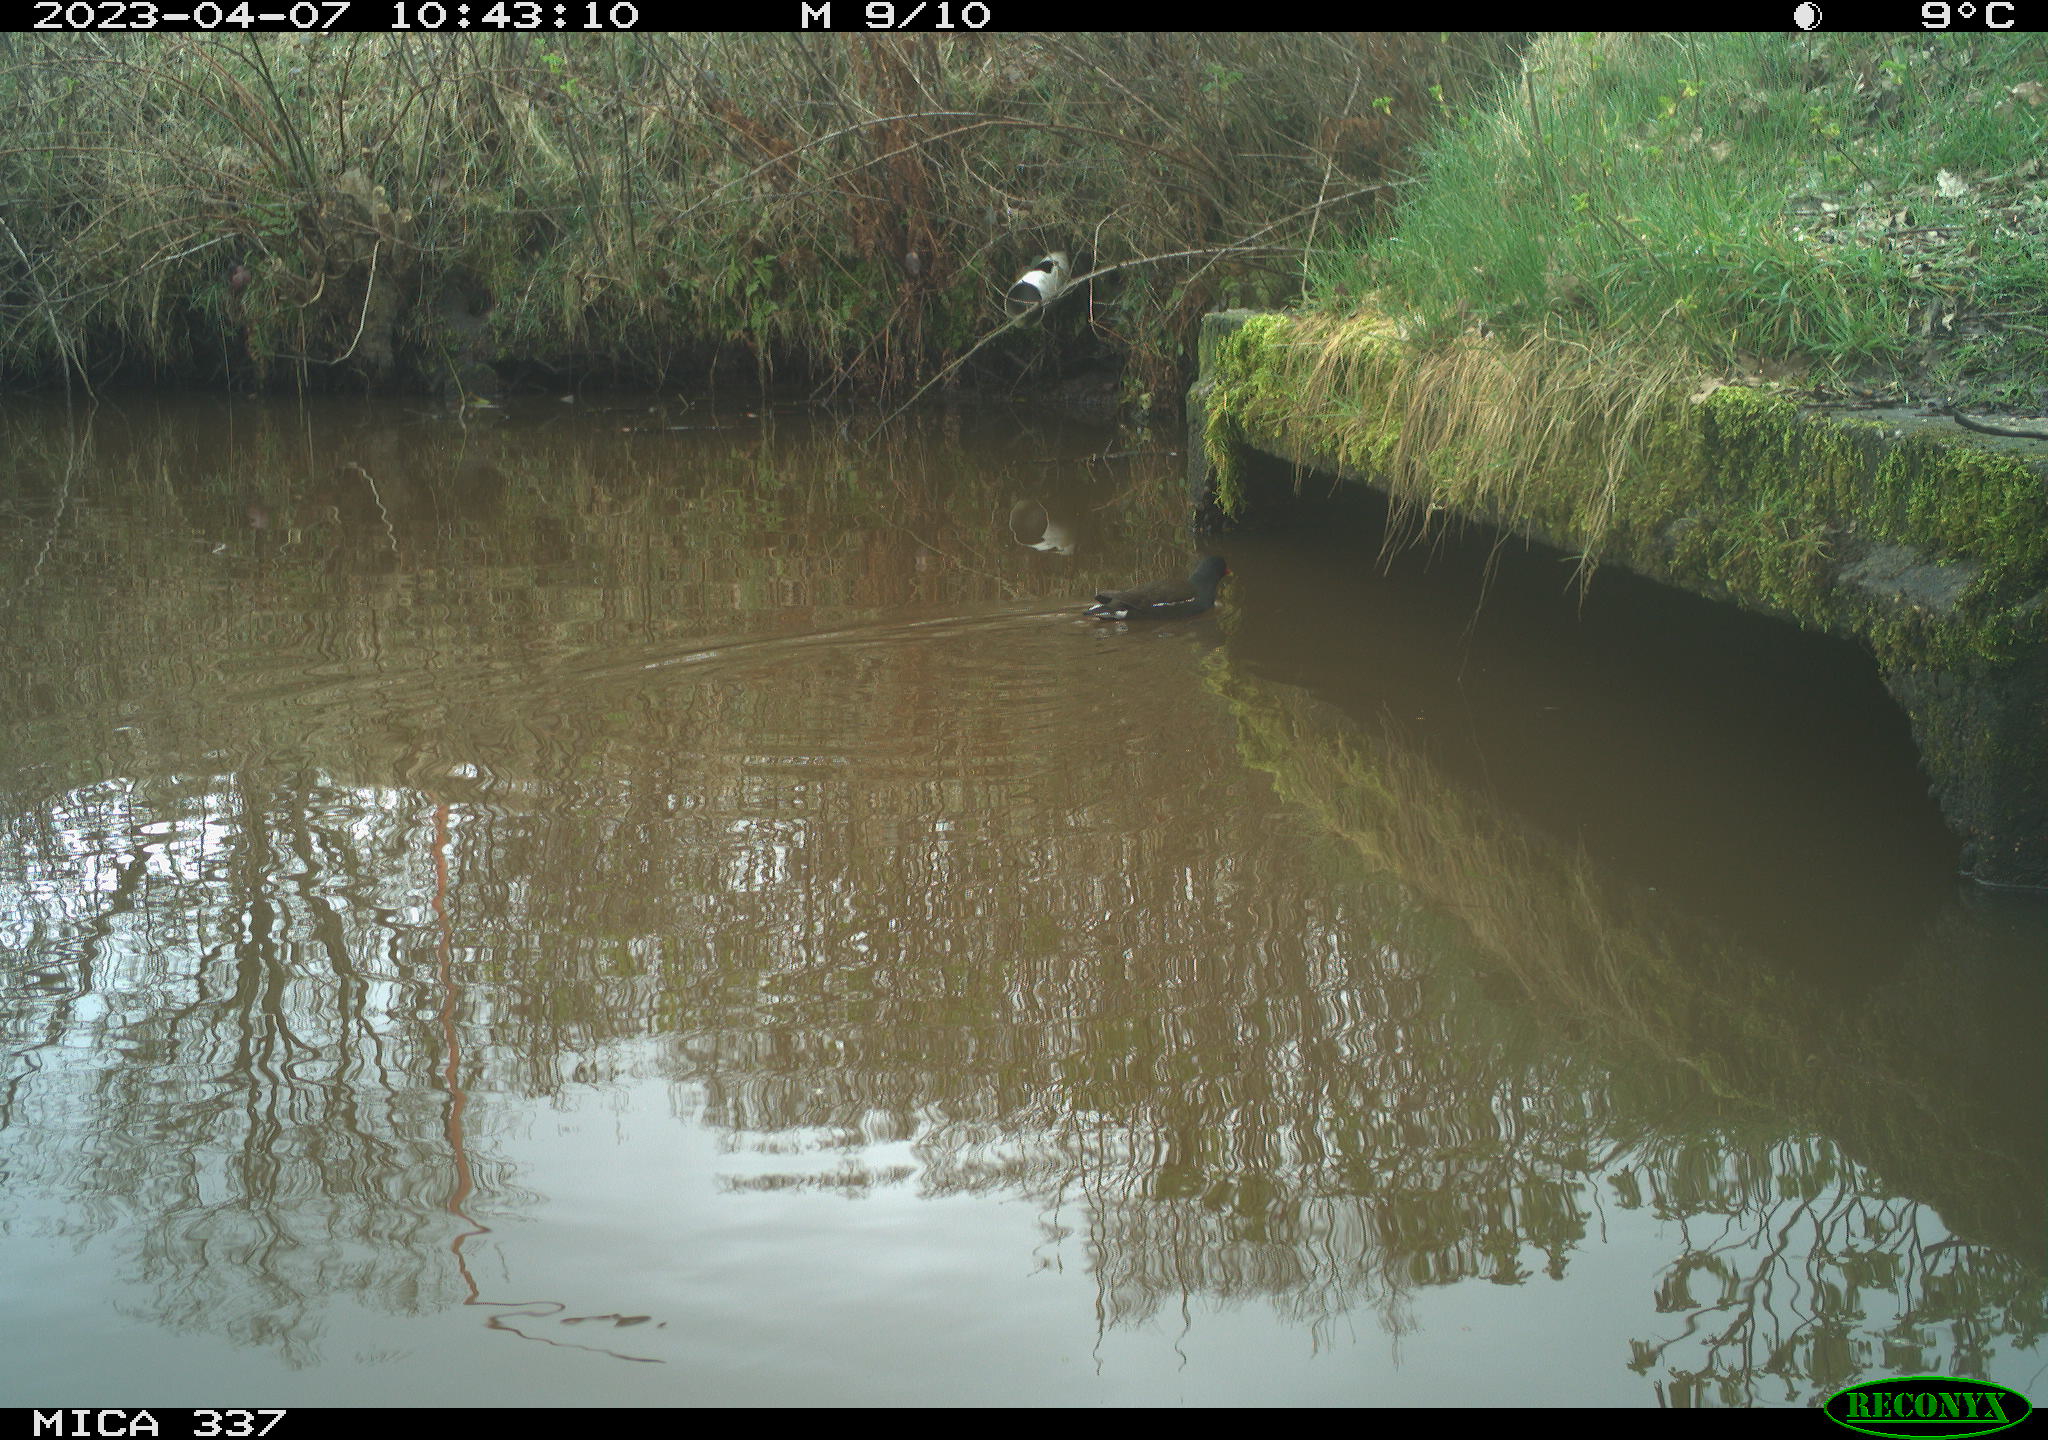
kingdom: Animalia
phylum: Chordata
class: Aves
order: Gruiformes
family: Rallidae
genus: Gallinula
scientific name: Gallinula chloropus
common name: Common moorhen
